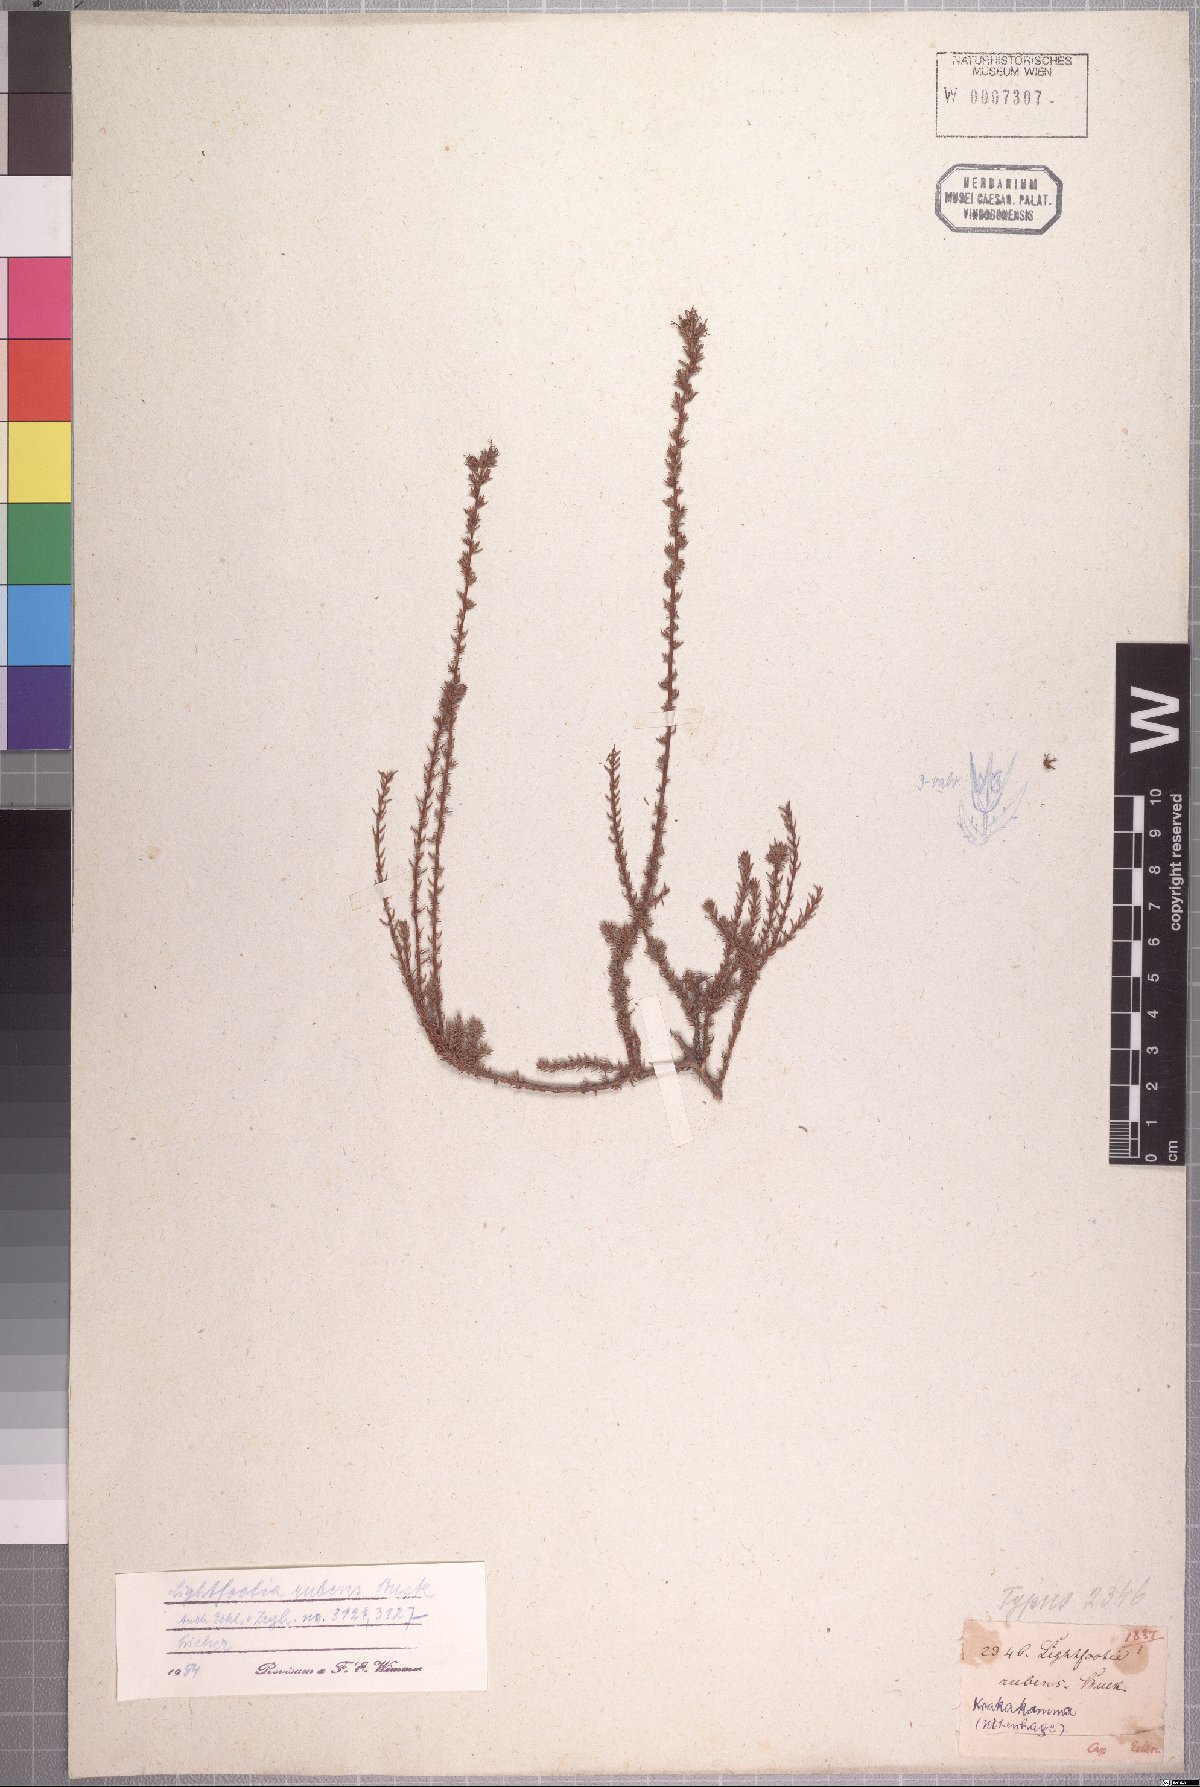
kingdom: Plantae
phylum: Tracheophyta
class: Magnoliopsida
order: Asterales
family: Campanulaceae
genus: Wahlenbergia
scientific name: Wahlenbergia rubens
